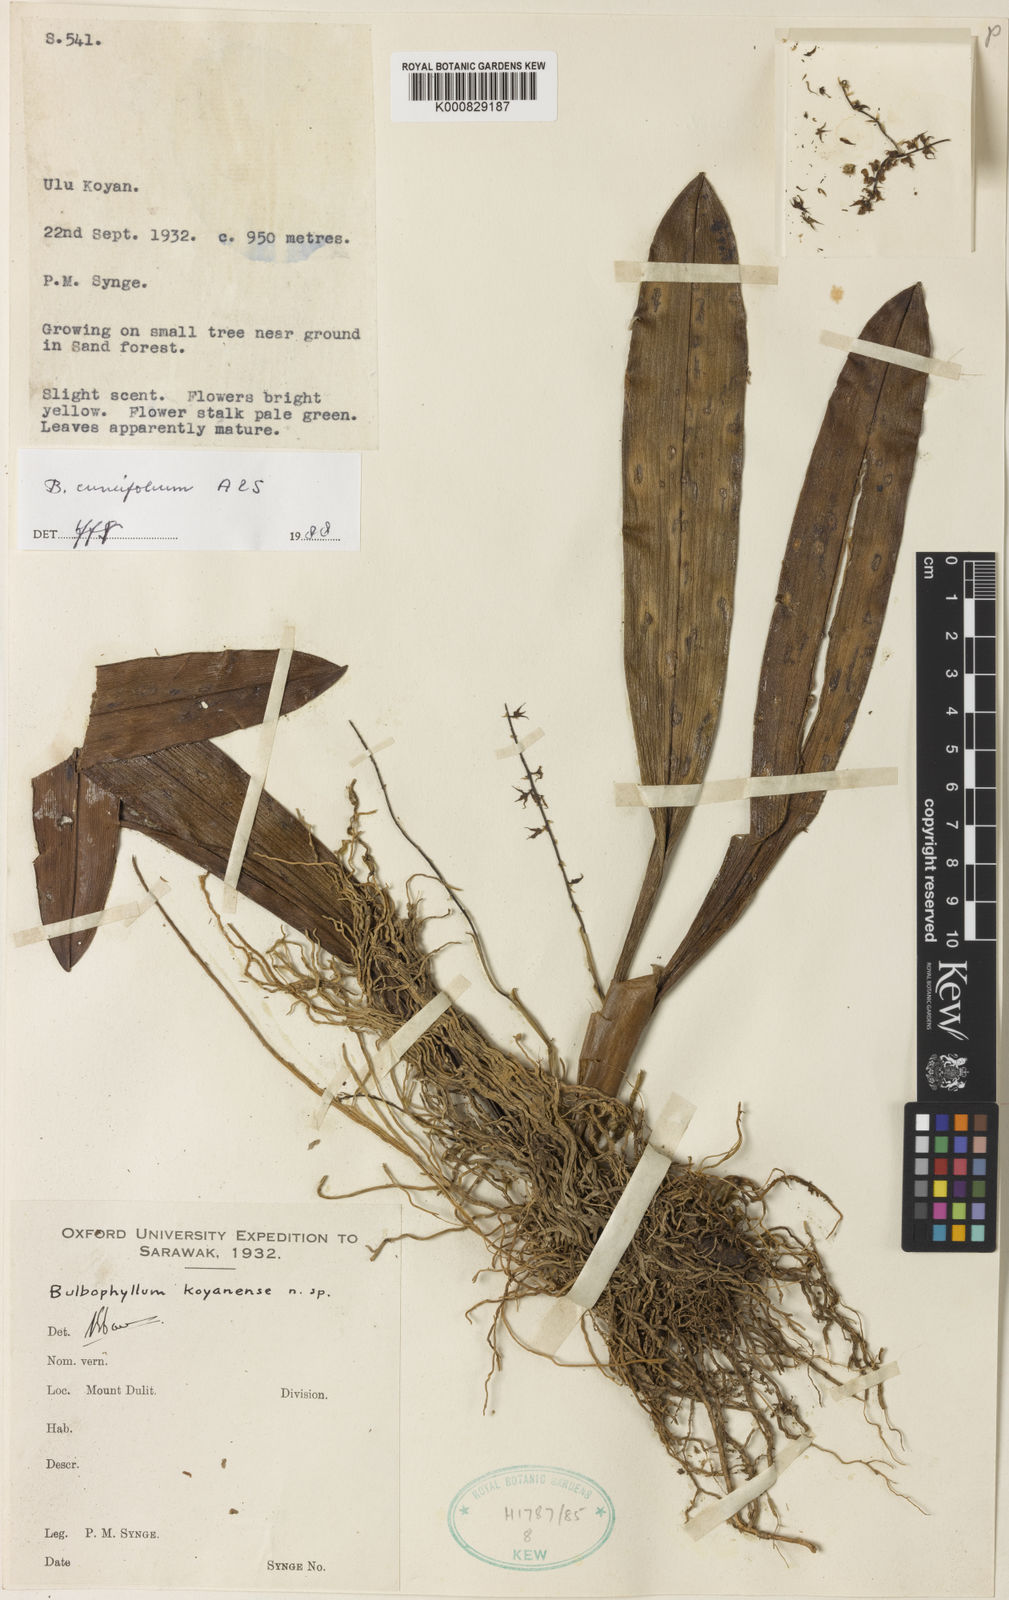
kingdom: Plantae
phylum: Tracheophyta
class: Liliopsida
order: Asparagales
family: Orchidaceae
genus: Bulbophyllum
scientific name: Bulbophyllum caudatisepalum
